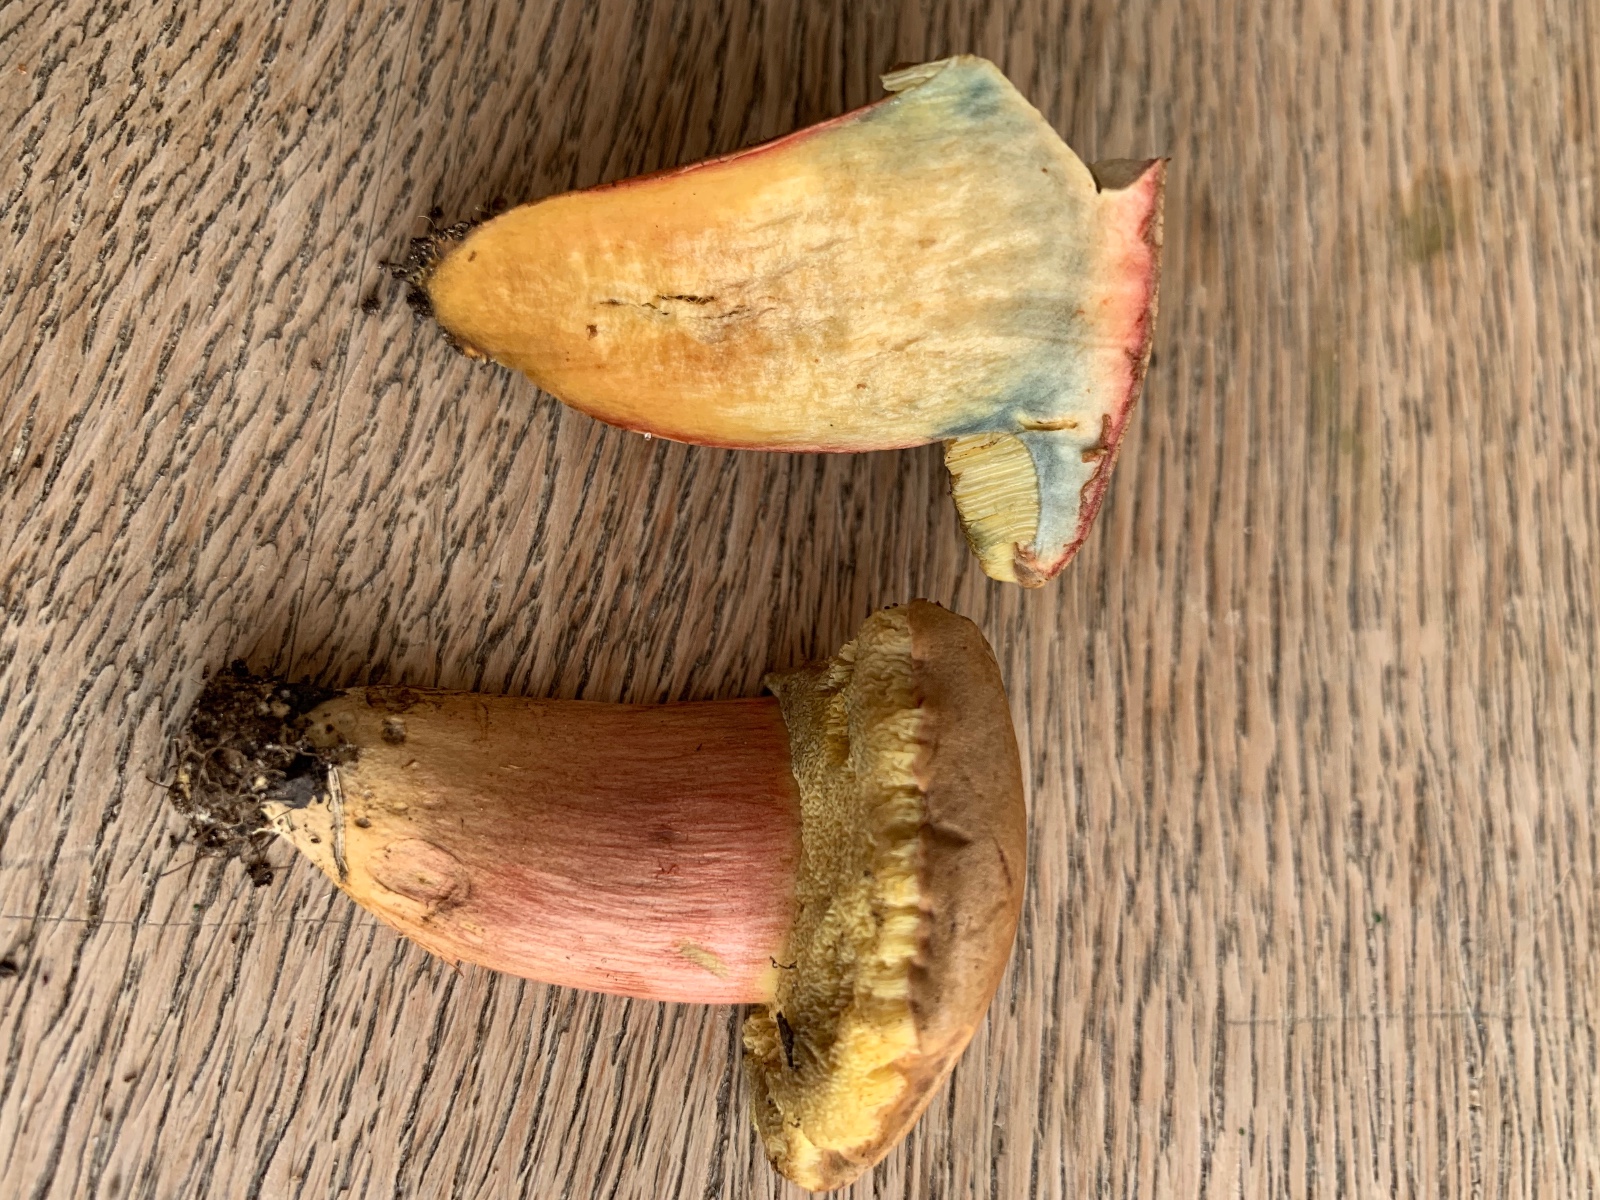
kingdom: Fungi
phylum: Basidiomycota
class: Agaricomycetes
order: Boletales
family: Boletaceae
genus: Hortiboletus
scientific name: Hortiboletus bubalinus
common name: aurora-rørhat
